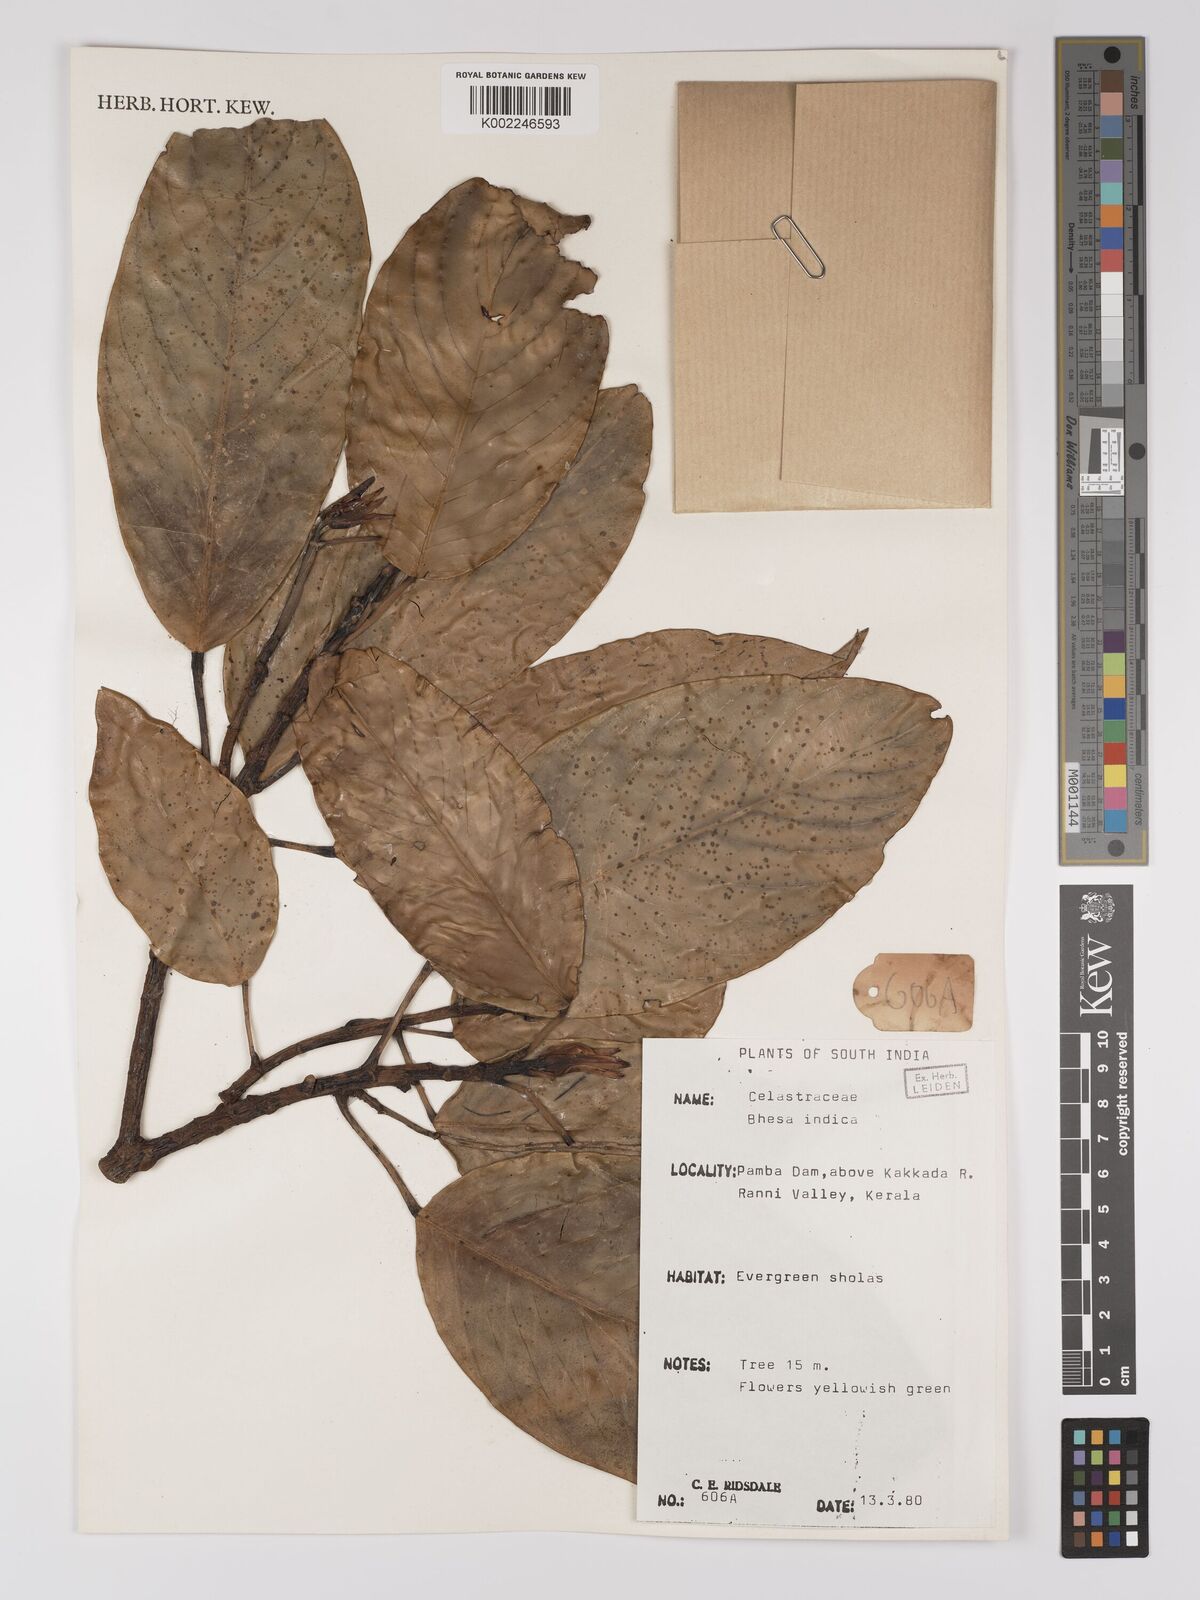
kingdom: Plantae
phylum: Tracheophyta
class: Magnoliopsida
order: Malpighiales
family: Centroplacaceae
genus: Bhesa
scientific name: Bhesa indica
